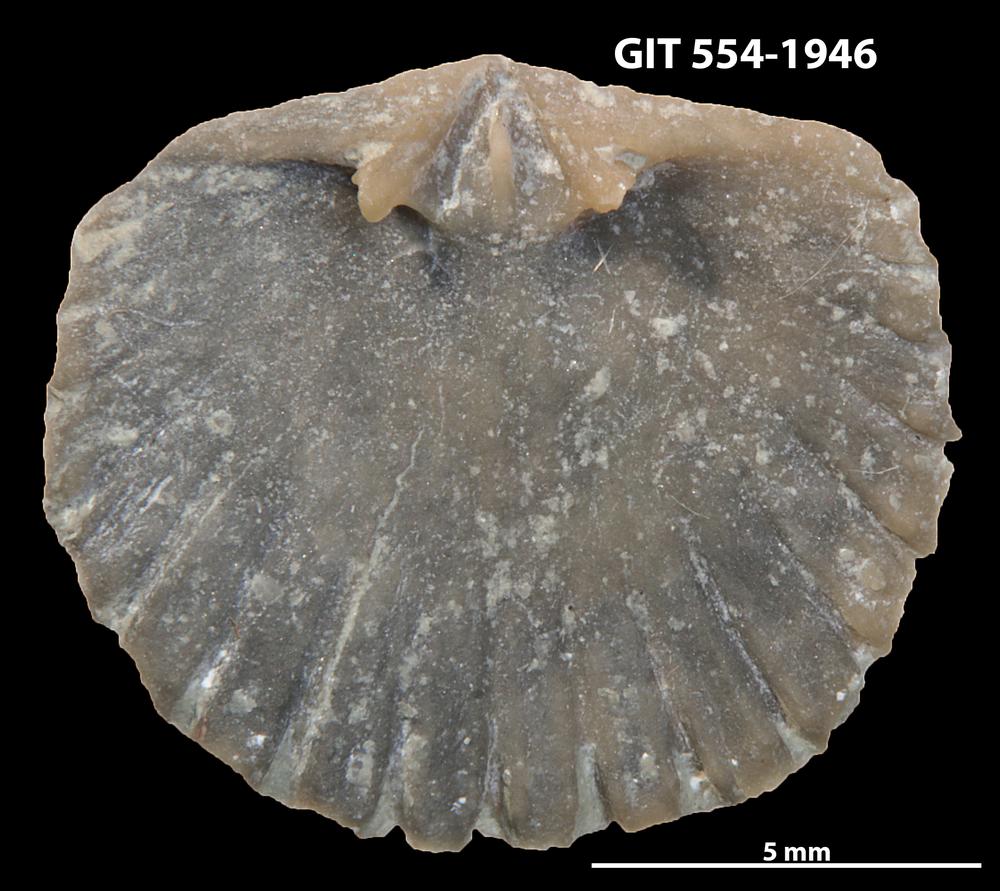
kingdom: Animalia
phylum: Brachiopoda
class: Rhynchonellata
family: Dolerorthidae
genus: Hesperorthis
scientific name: Hesperorthis hillistensis
